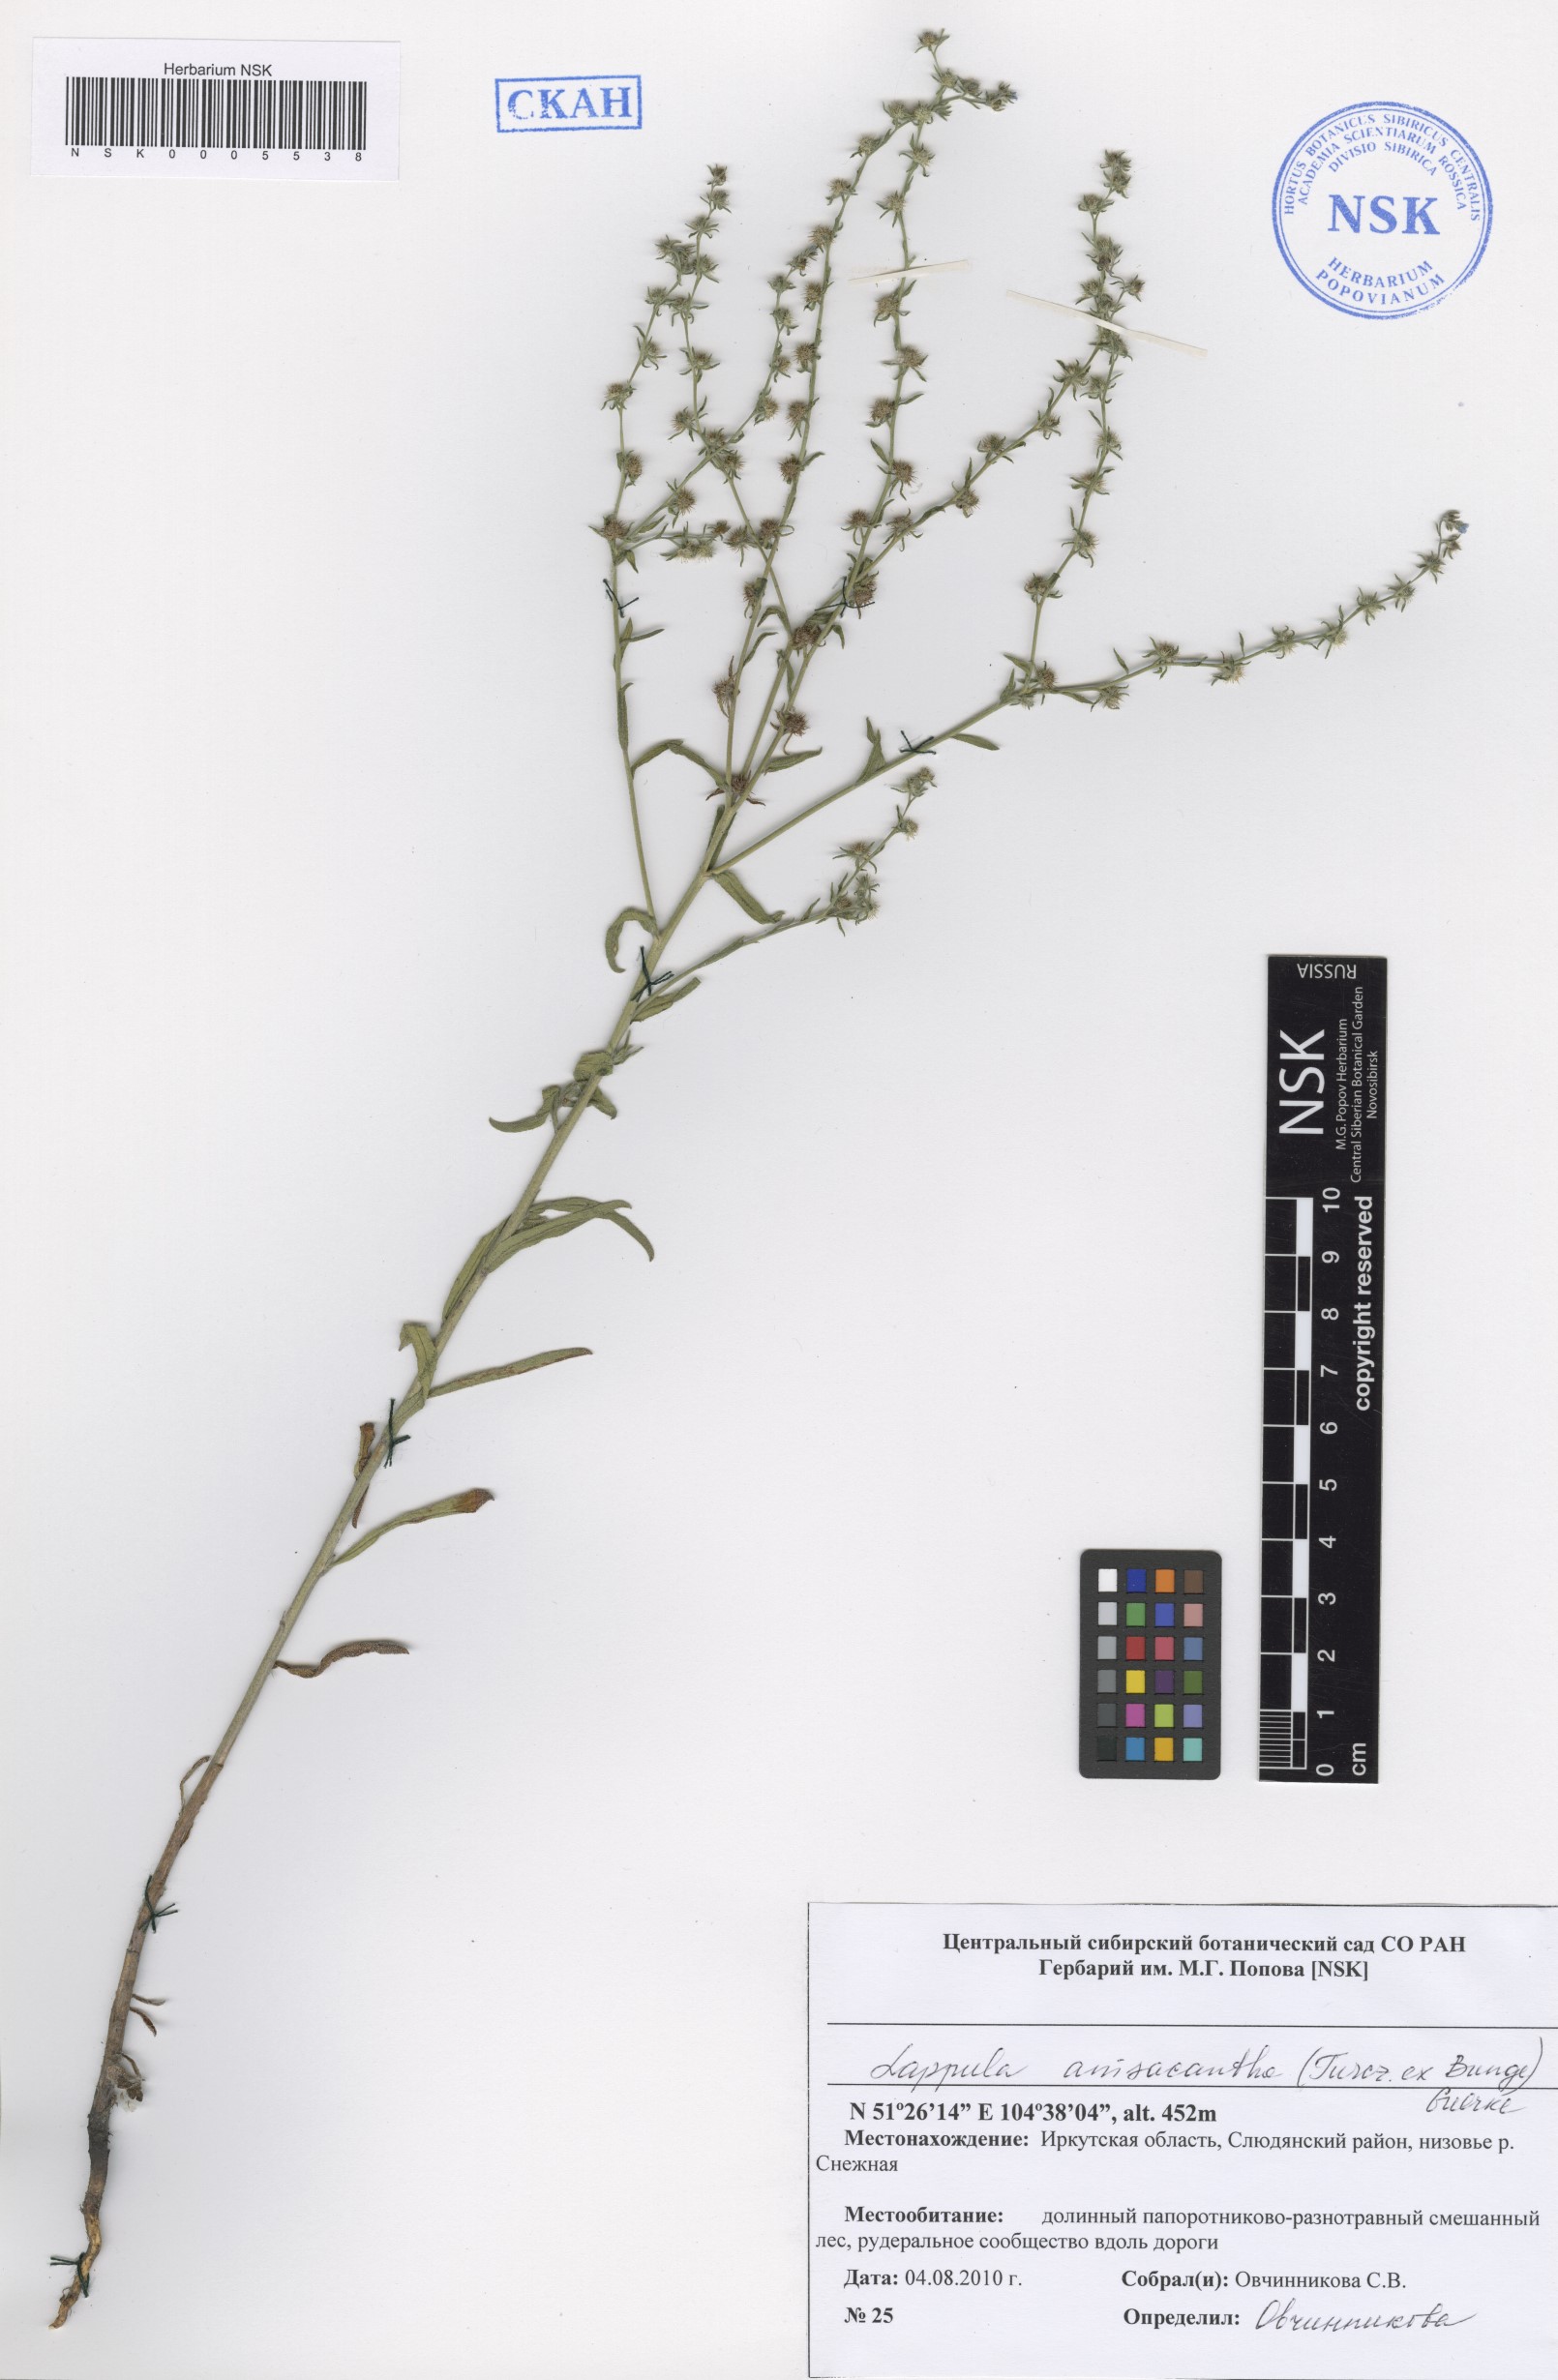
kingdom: Plantae
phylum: Tracheophyta
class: Magnoliopsida
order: Boraginales
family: Boraginaceae
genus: Lappula
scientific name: Lappula intermedia
